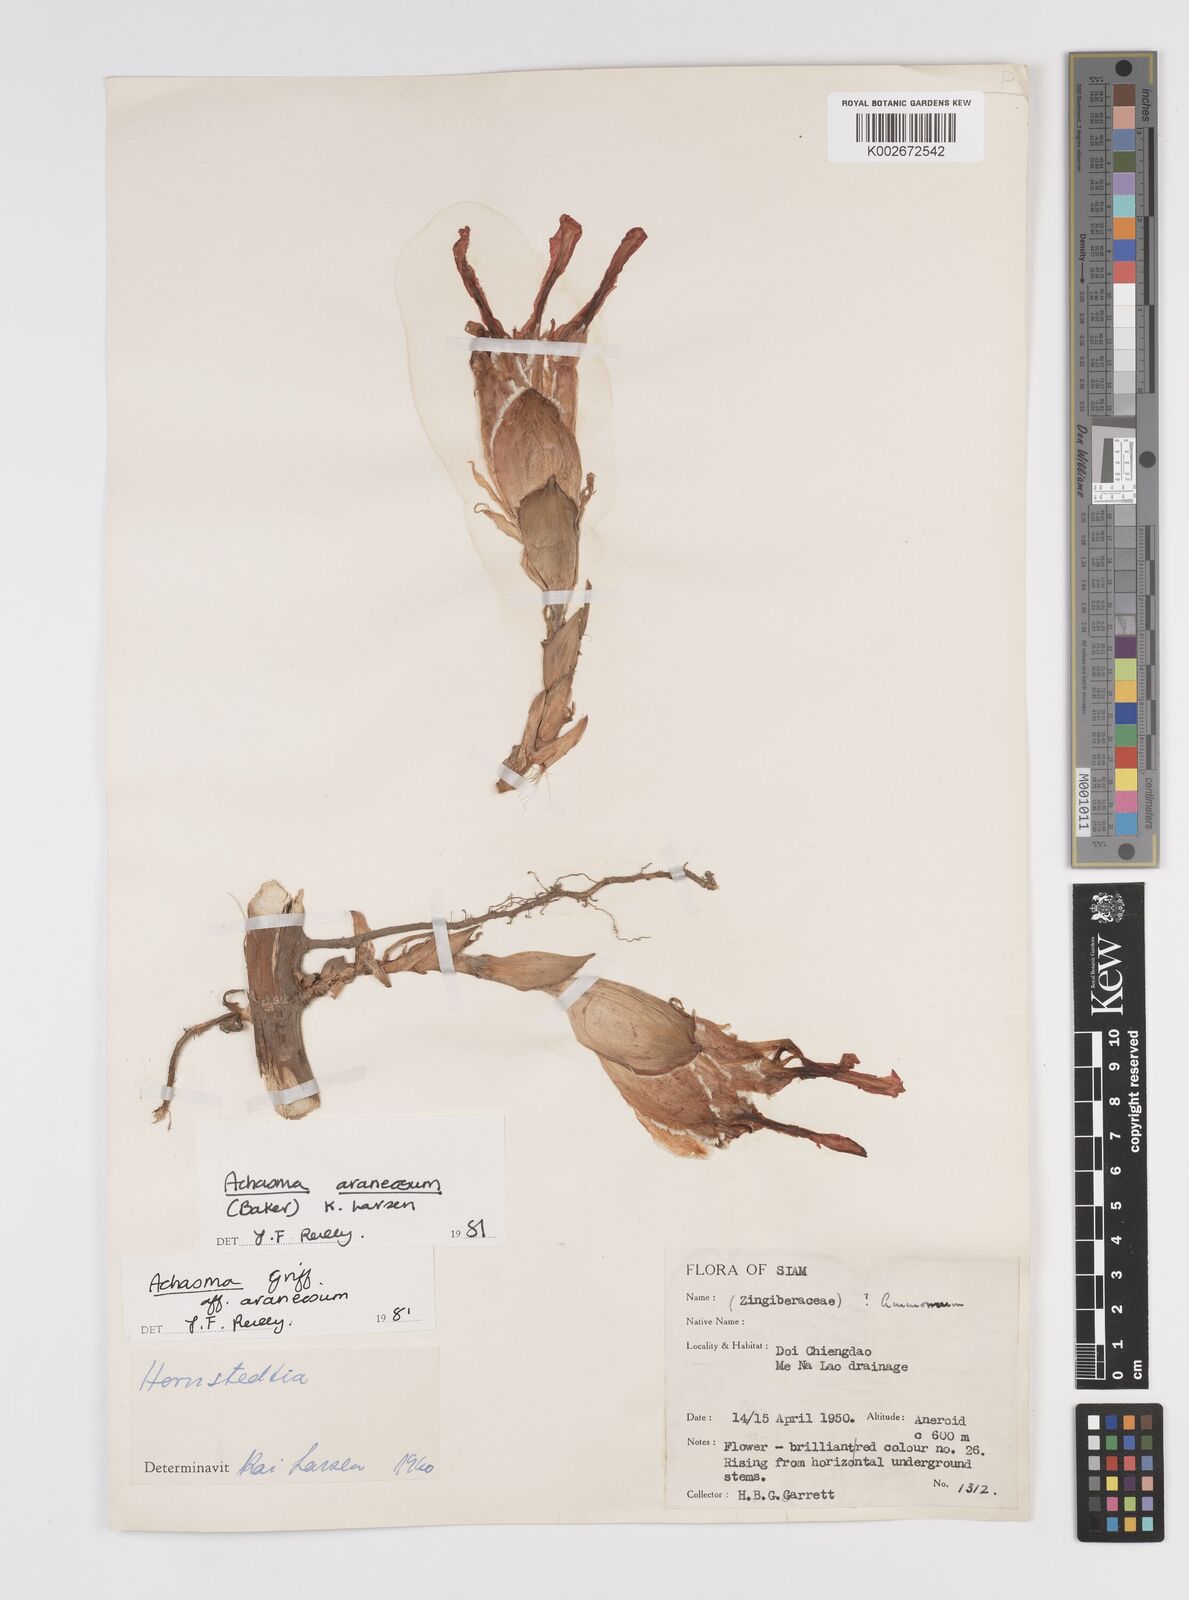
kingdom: Plantae
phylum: Tracheophyta
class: Liliopsida
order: Zingiberales
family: Zingiberaceae
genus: Etlingera
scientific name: Etlingera araneosa
